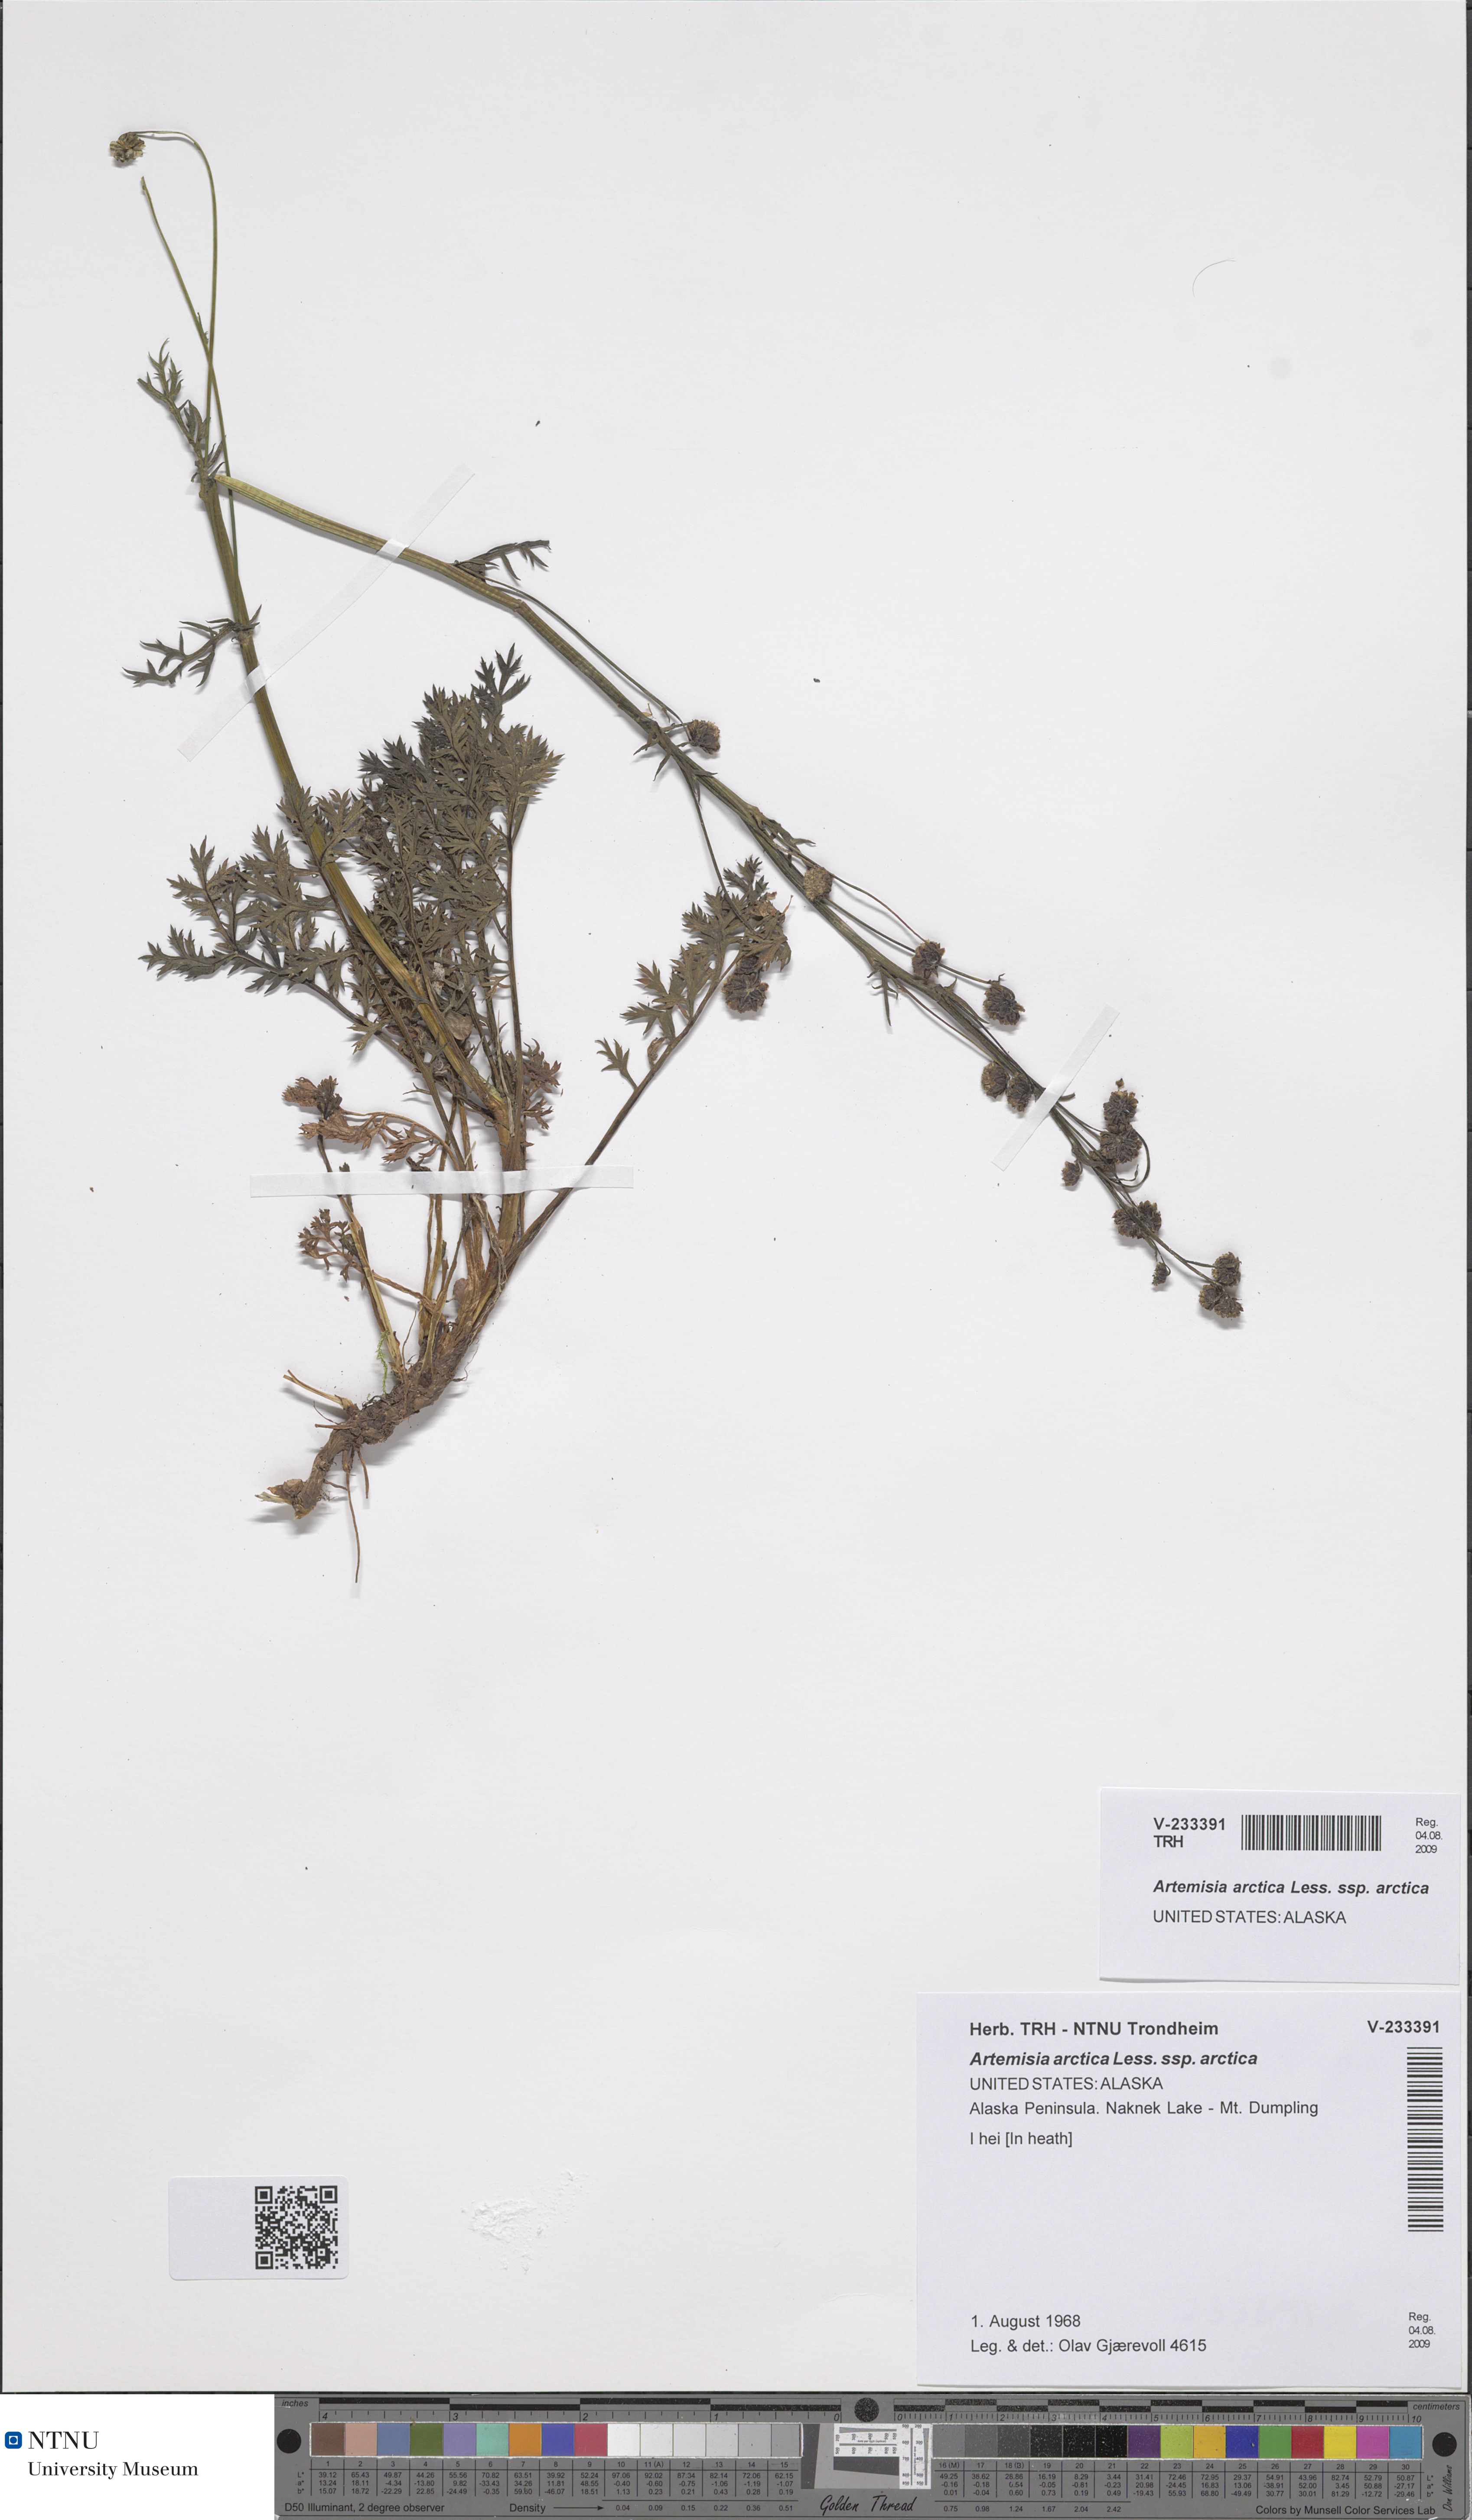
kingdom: Plantae
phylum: Tracheophyta
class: Magnoliopsida
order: Asterales
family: Asteraceae
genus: Artemisia
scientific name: Artemisia
